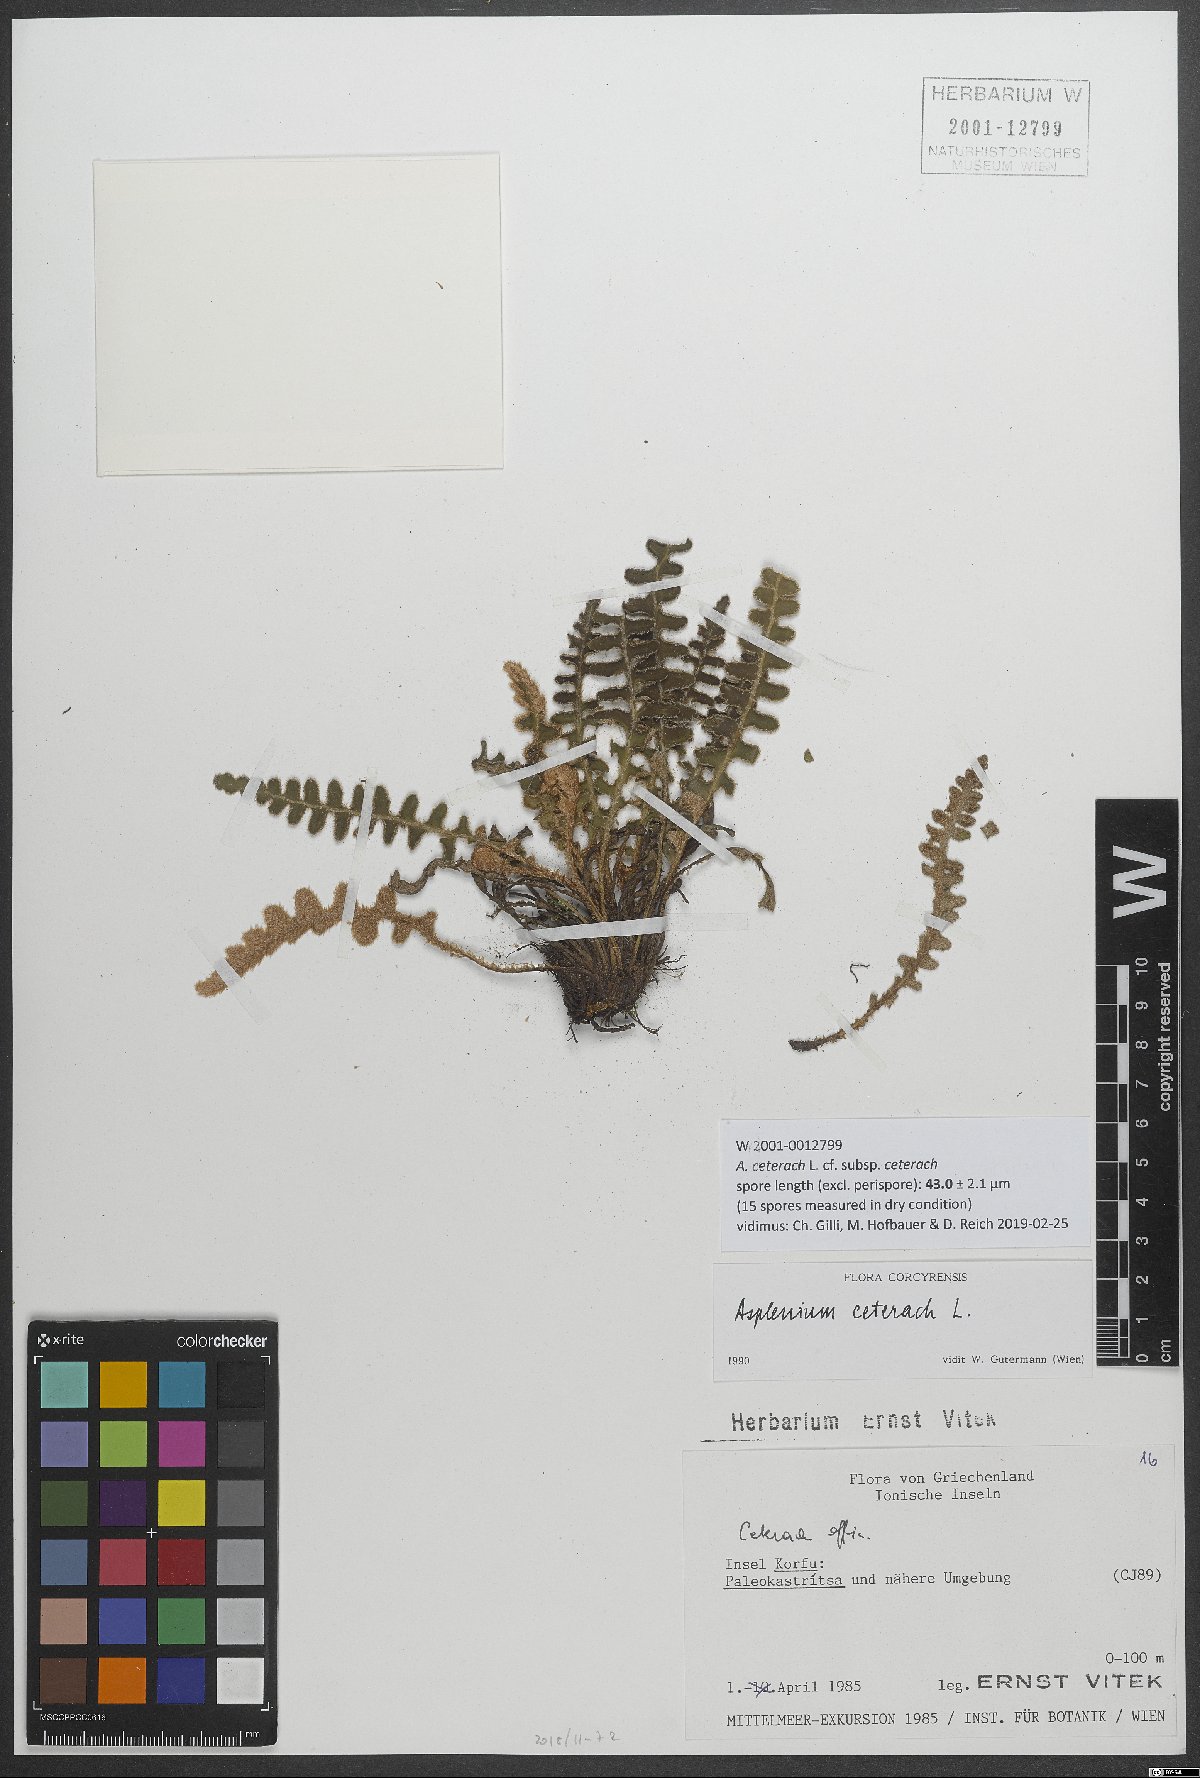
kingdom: Plantae
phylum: Tracheophyta
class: Polypodiopsida
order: Polypodiales
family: Aspleniaceae
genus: Asplenium
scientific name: Asplenium ceterach
